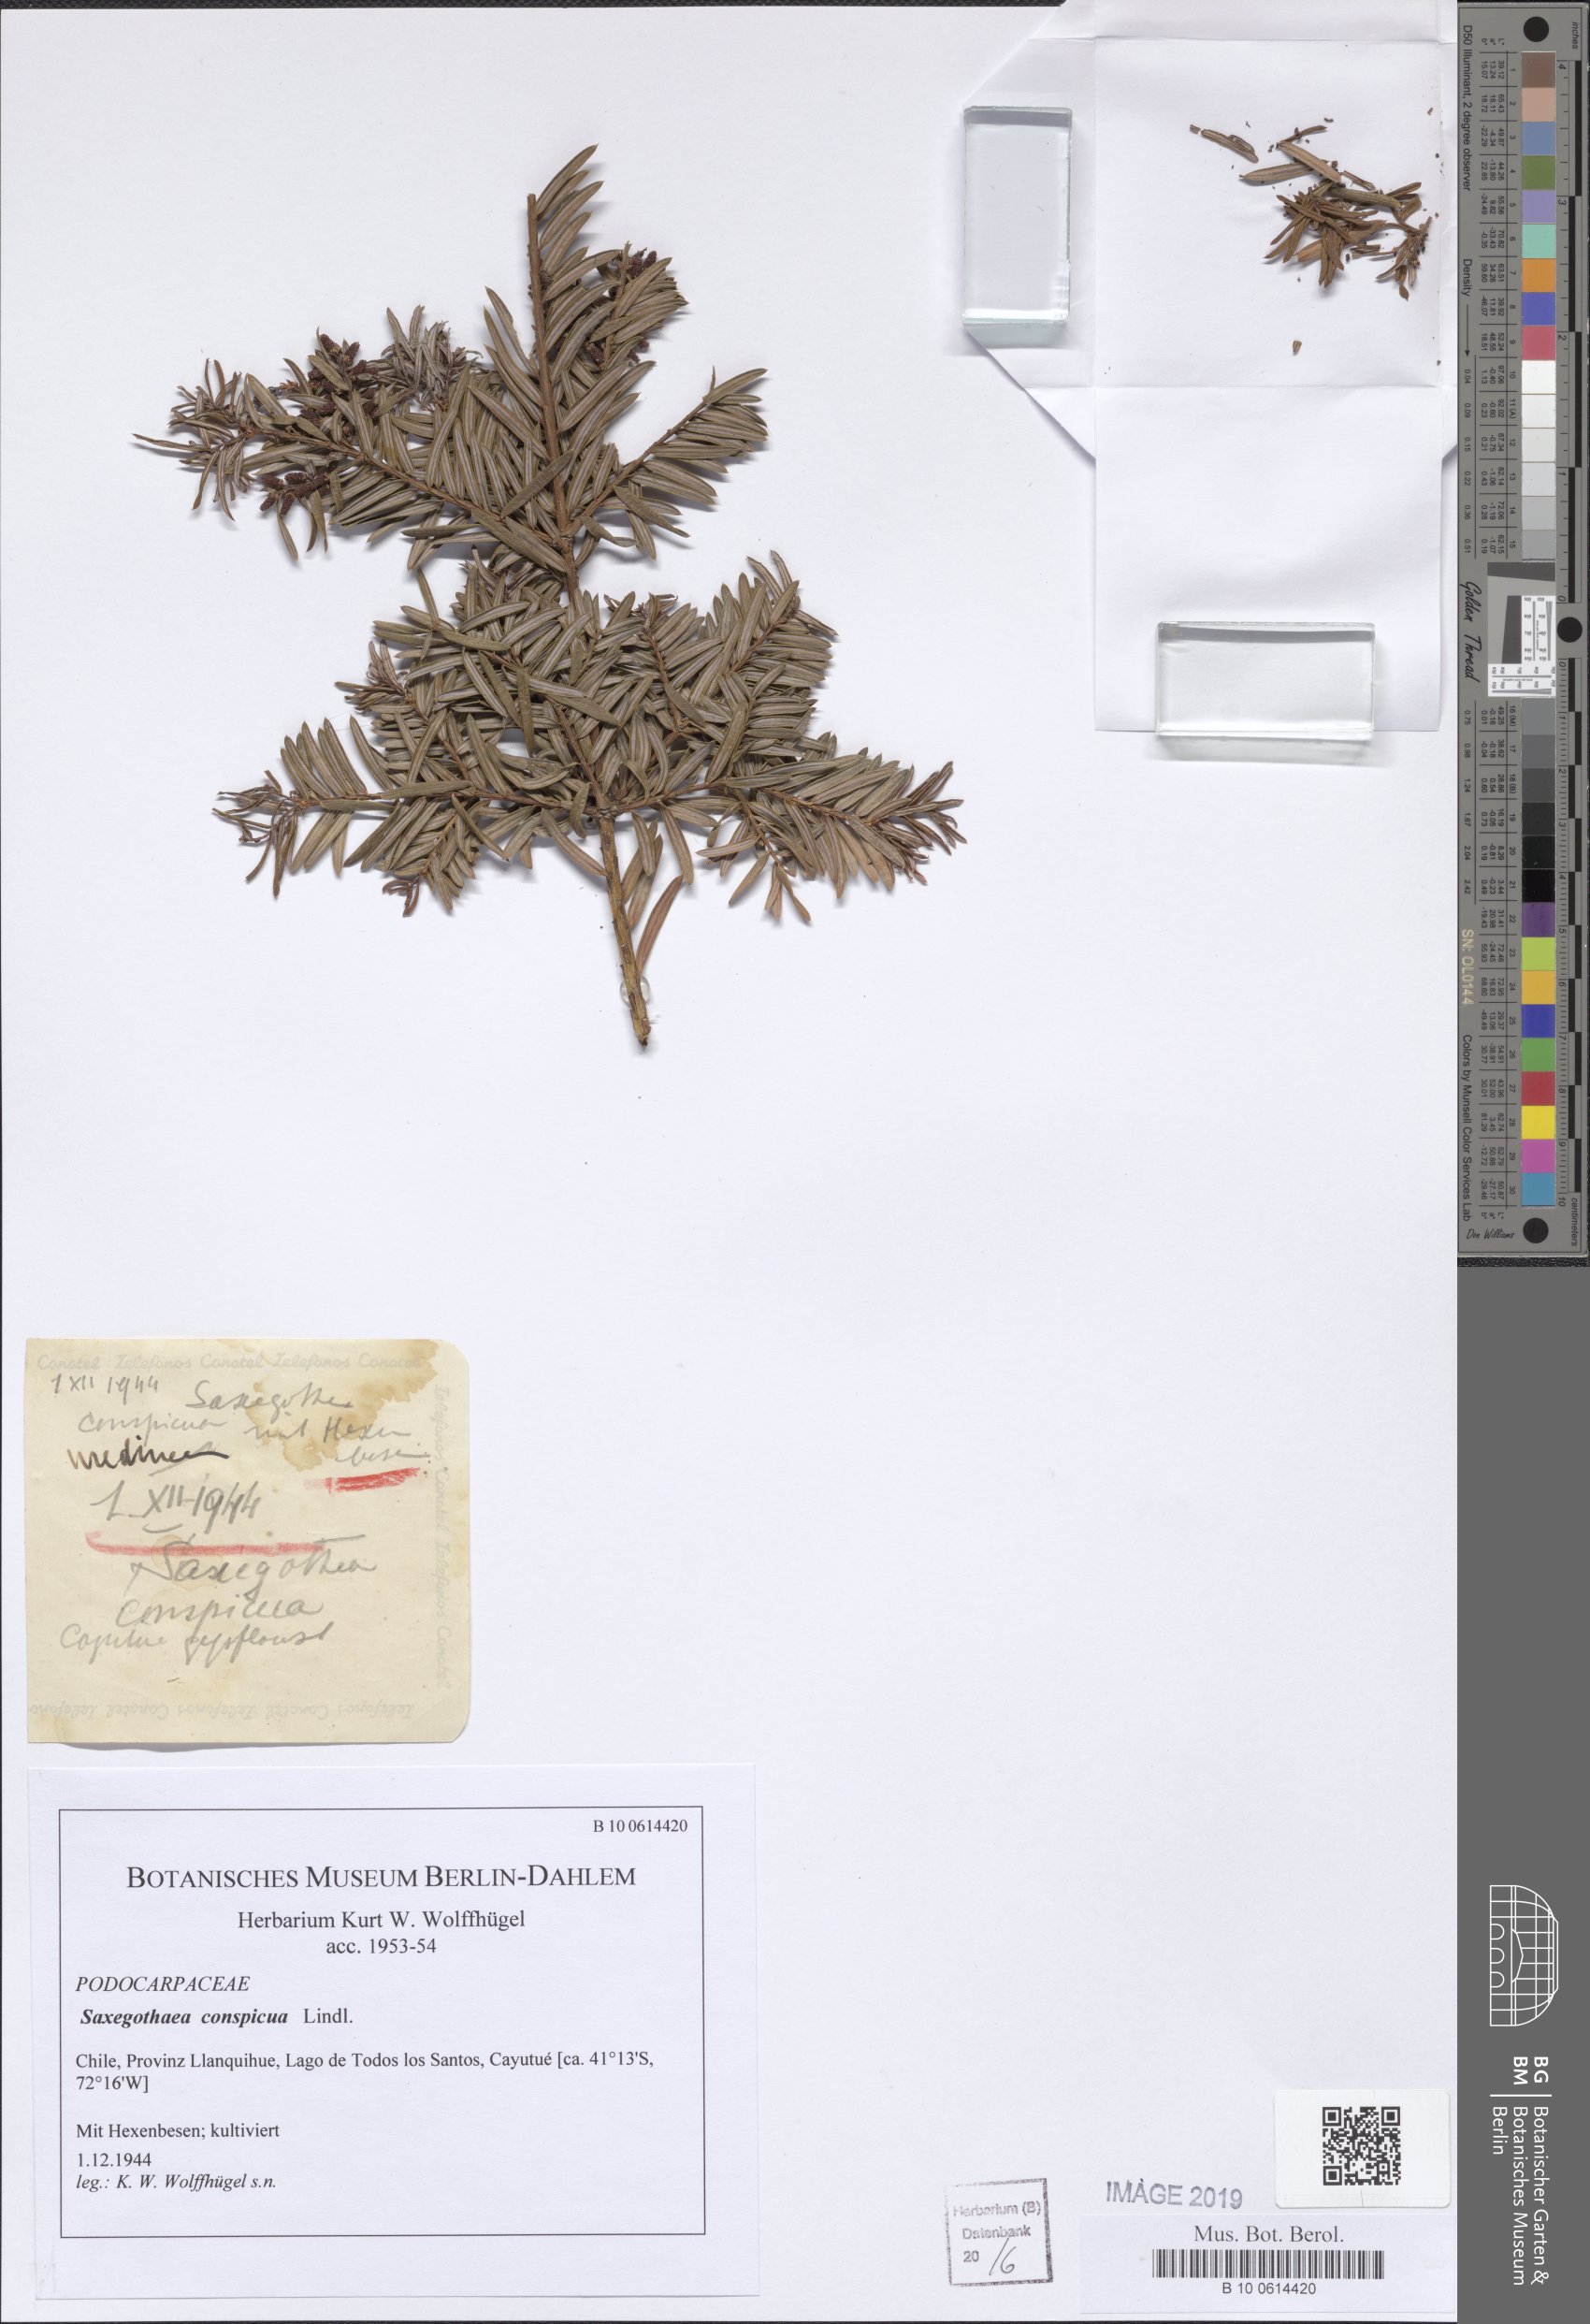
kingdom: Plantae
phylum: Tracheophyta
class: Pinopsida
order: Pinales
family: Podocarpaceae
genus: Saxegothaea
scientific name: Saxegothaea conspicua
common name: Prince albert's yew
